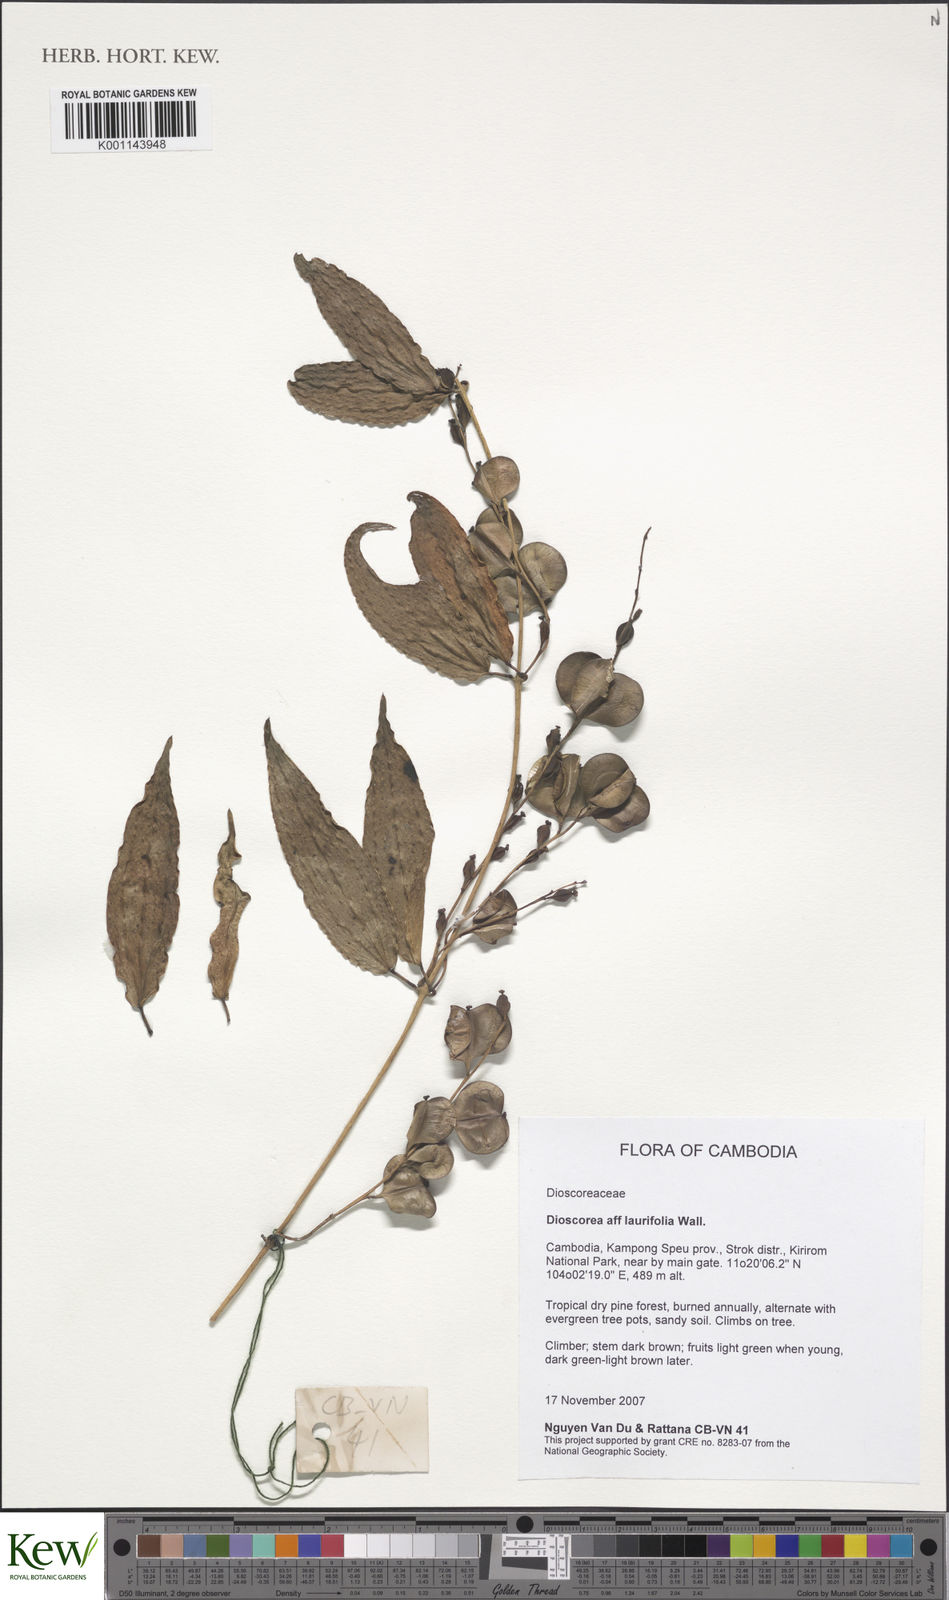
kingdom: Plantae
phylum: Tracheophyta
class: Liliopsida
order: Dioscoreales
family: Dioscoreaceae
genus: Dioscorea
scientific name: Dioscorea laurifolia
